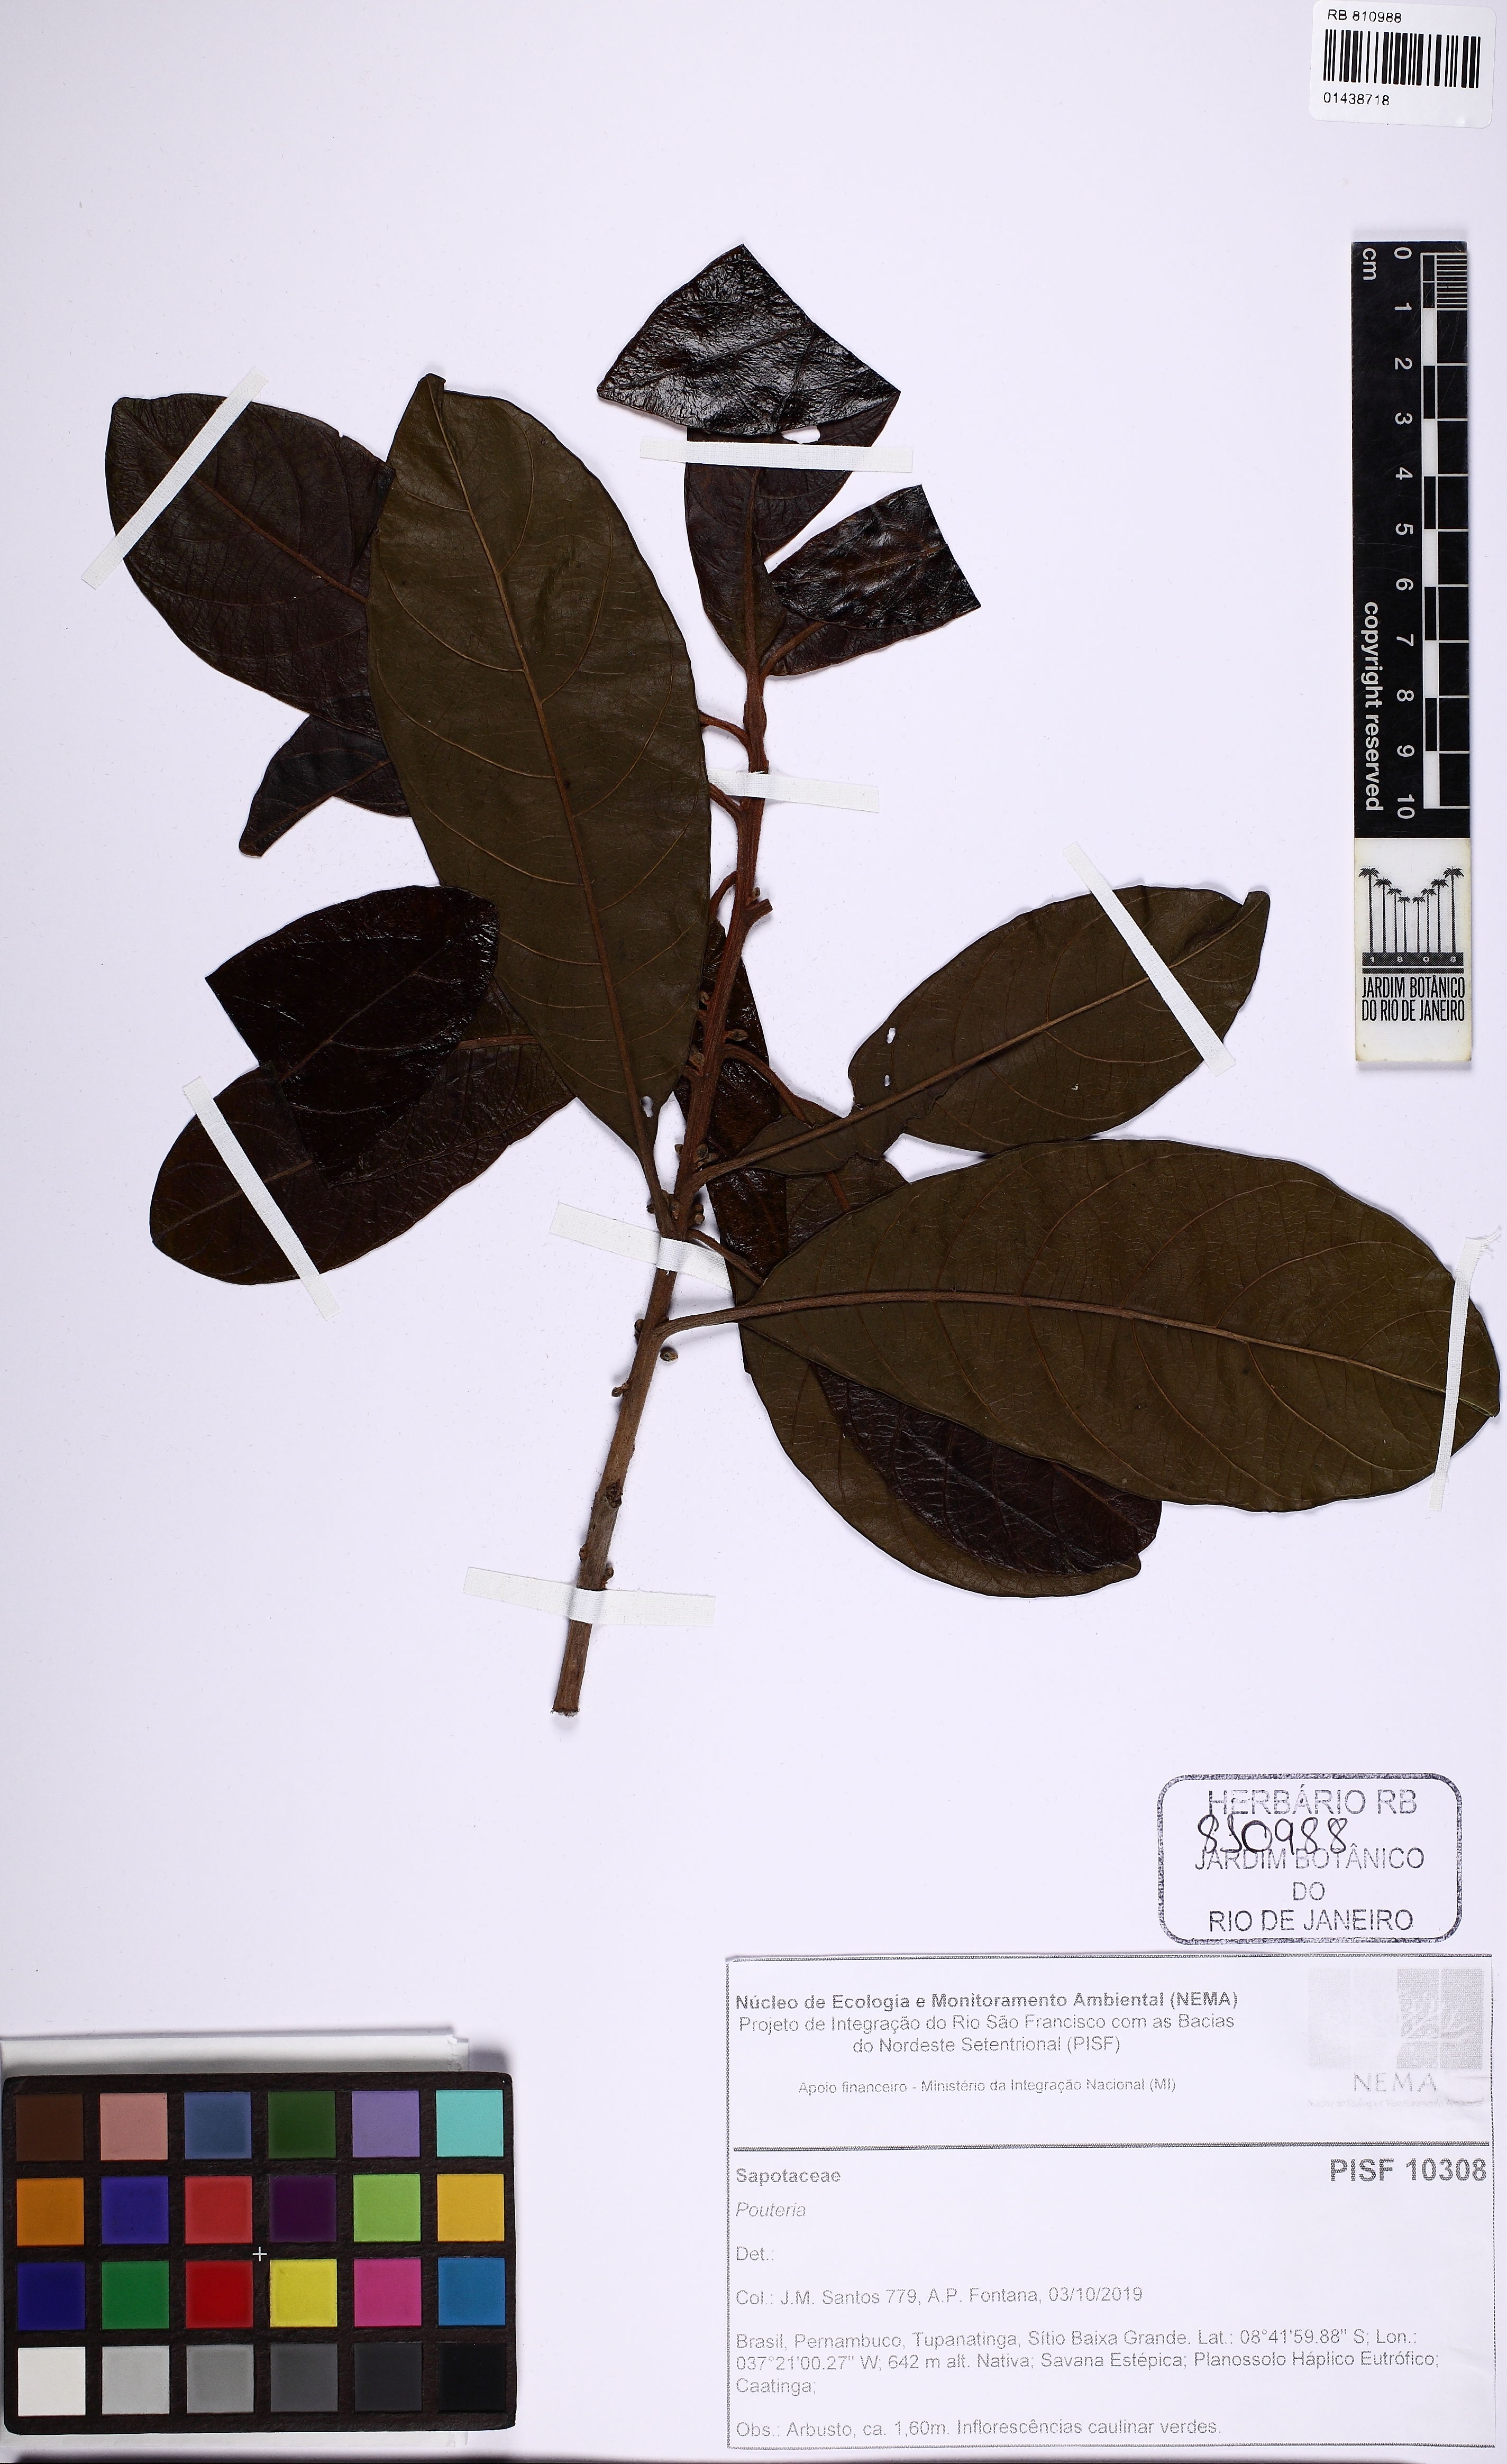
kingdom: Plantae
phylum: Tracheophyta
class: Magnoliopsida
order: Ericales
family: Sapotaceae
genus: Pouteria
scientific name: Pouteria nordestinensis
